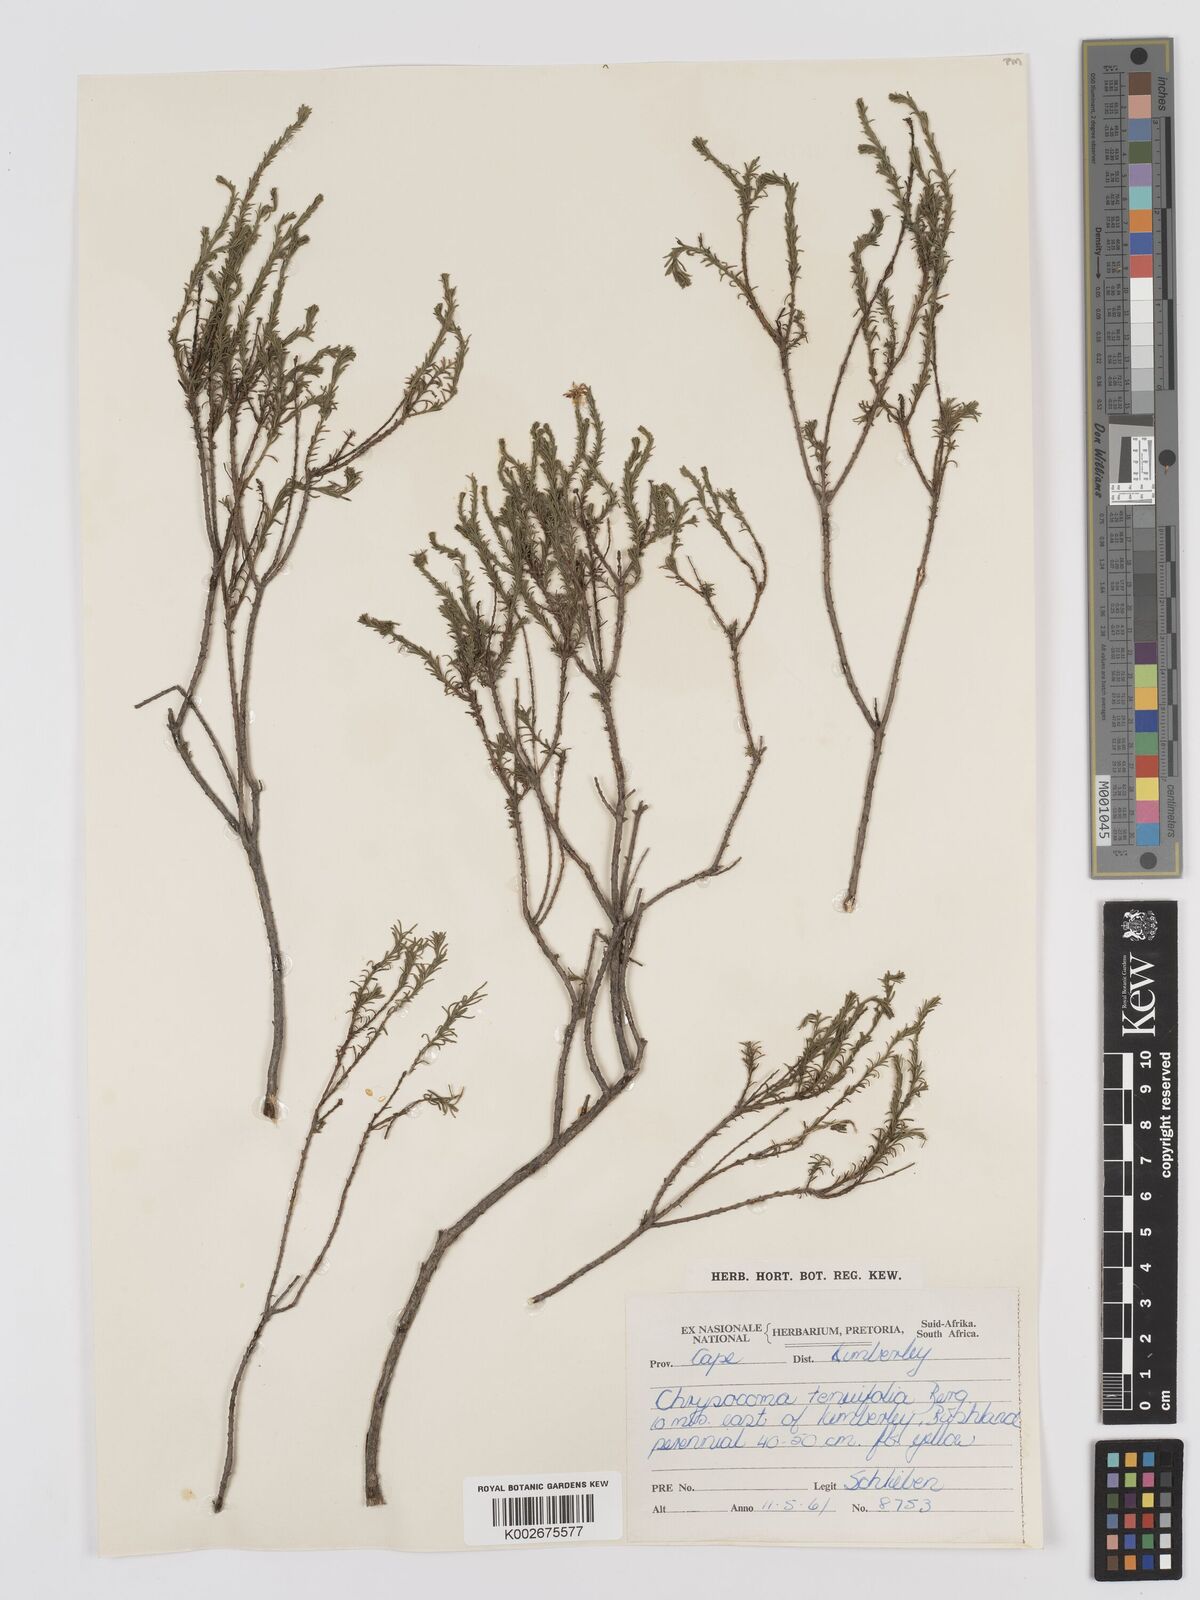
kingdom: Plantae
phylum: Tracheophyta
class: Magnoliopsida
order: Asterales
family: Asteraceae
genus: Chrysocoma
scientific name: Chrysocoma ciliata
